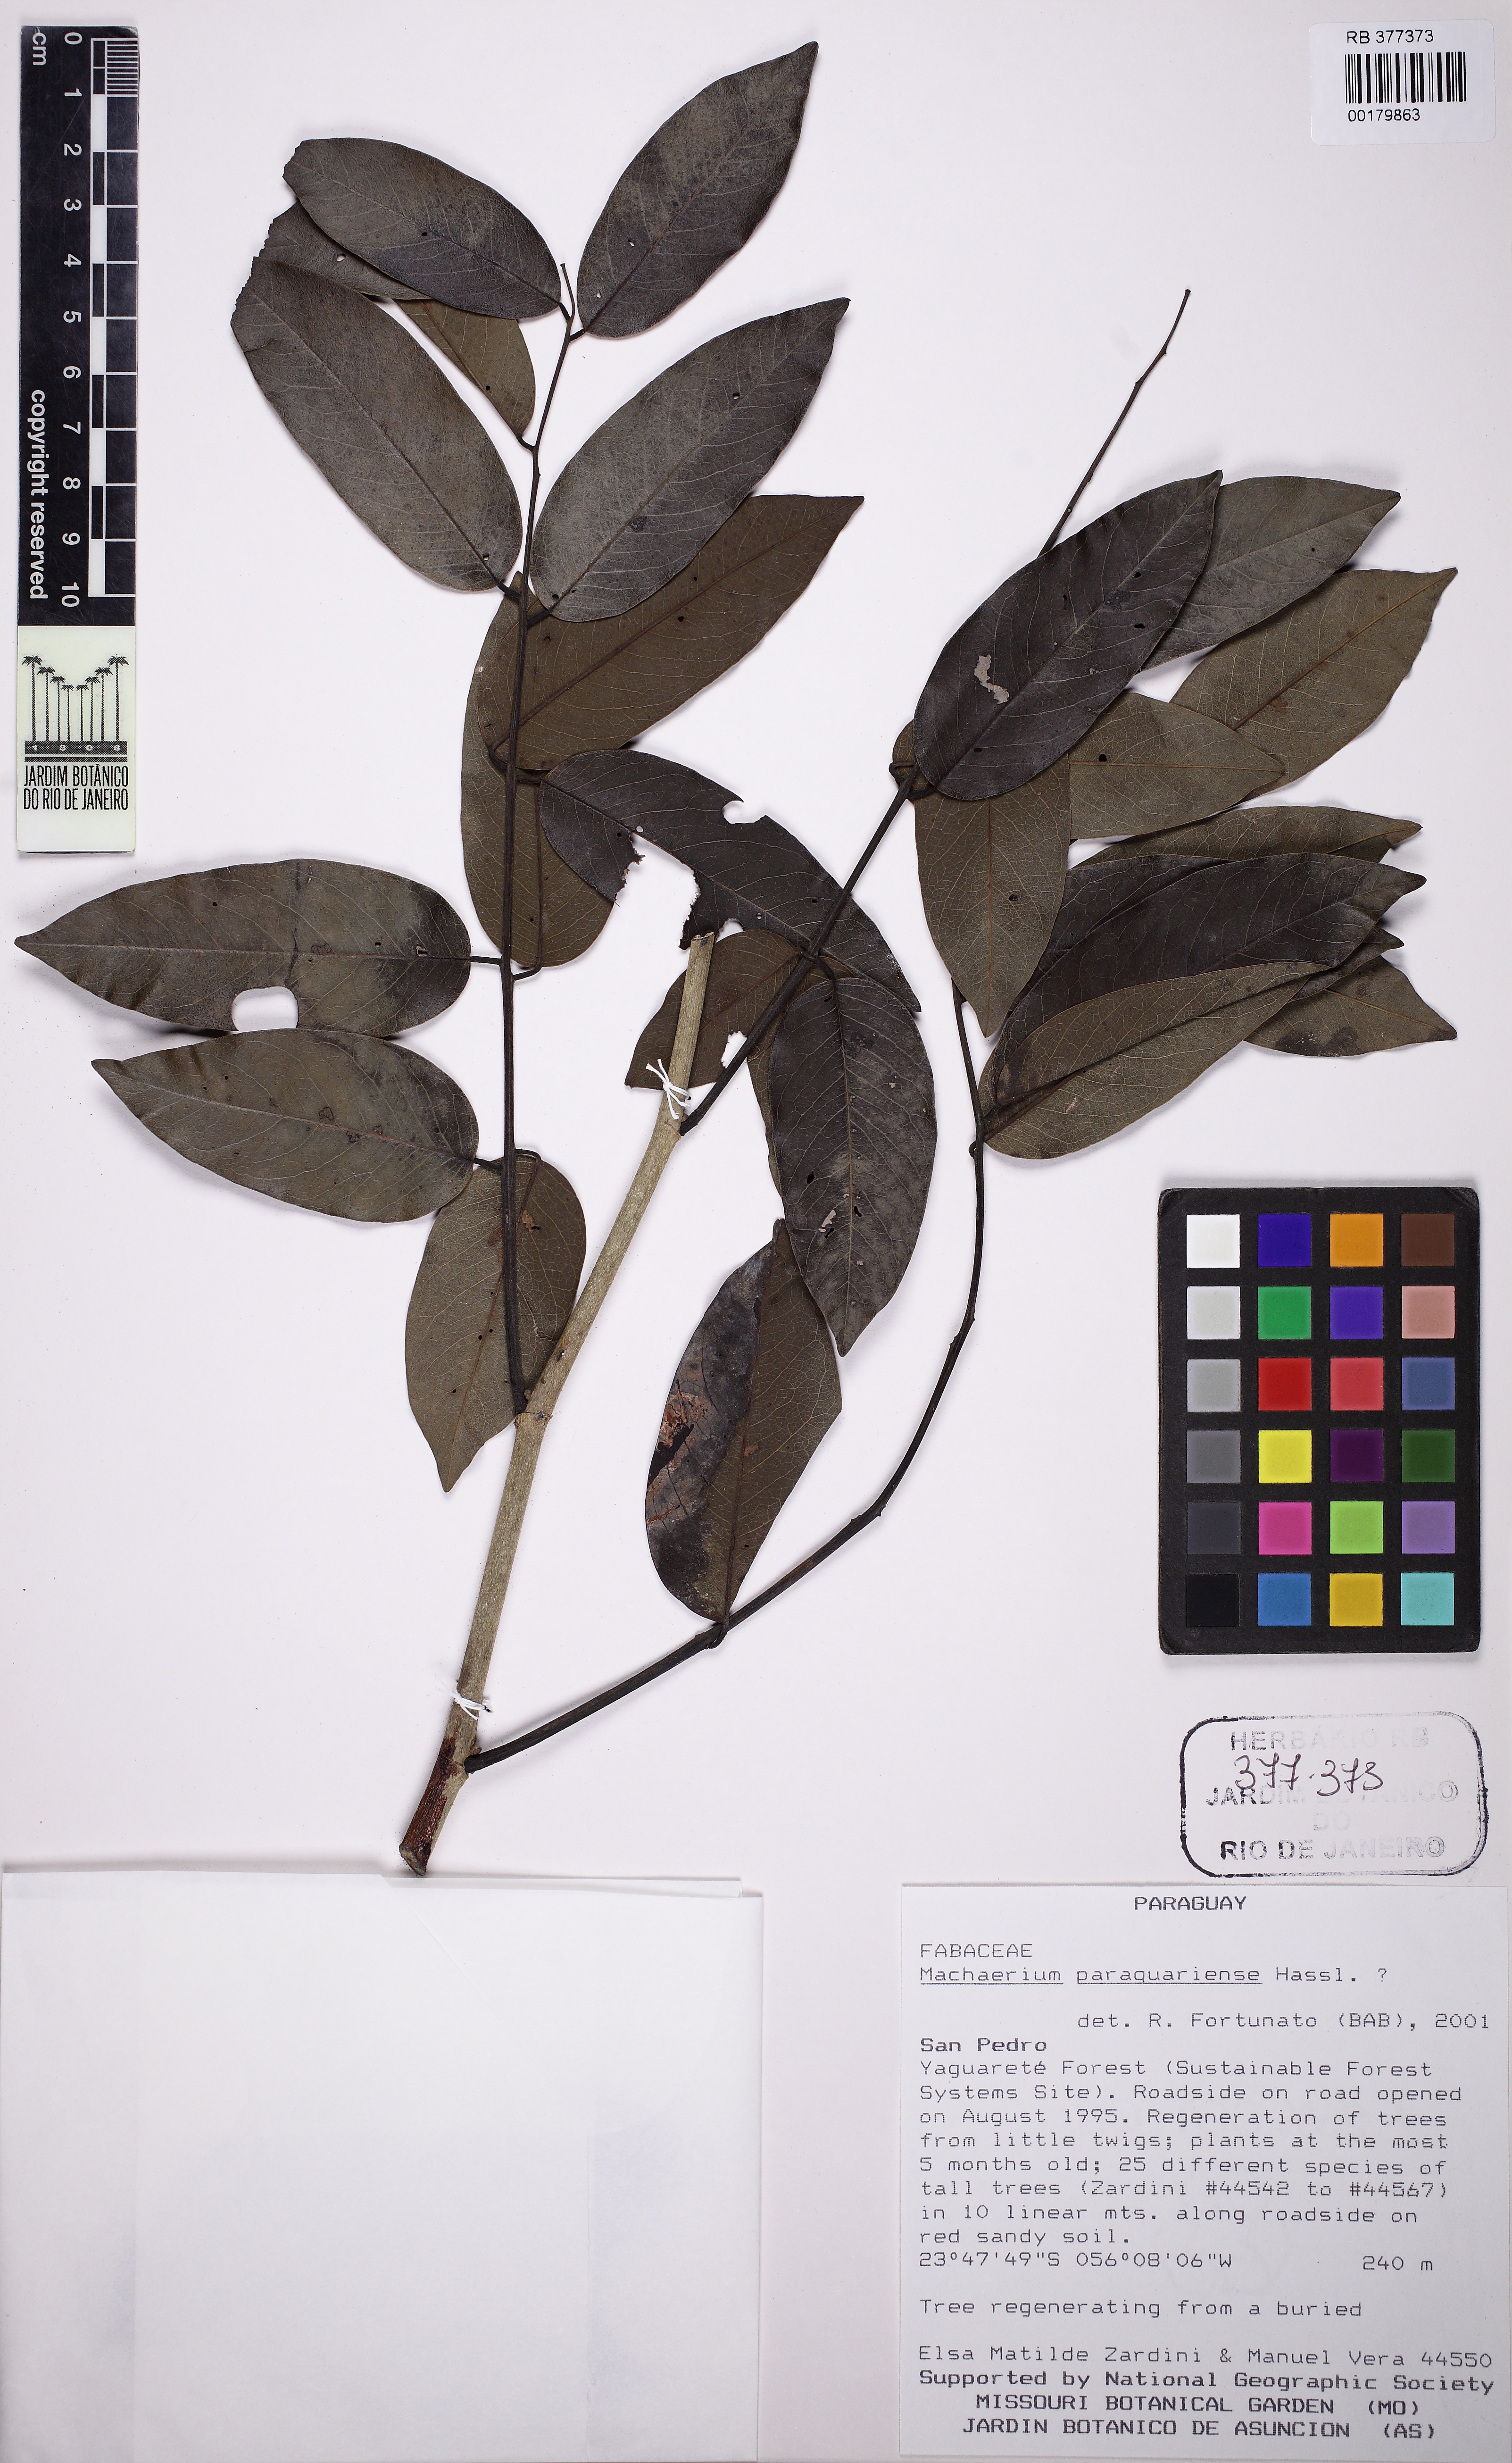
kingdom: Plantae
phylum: Tracheophyta
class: Magnoliopsida
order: Fabales
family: Fabaceae
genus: Machaerium
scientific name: Machaerium oblongifolium
